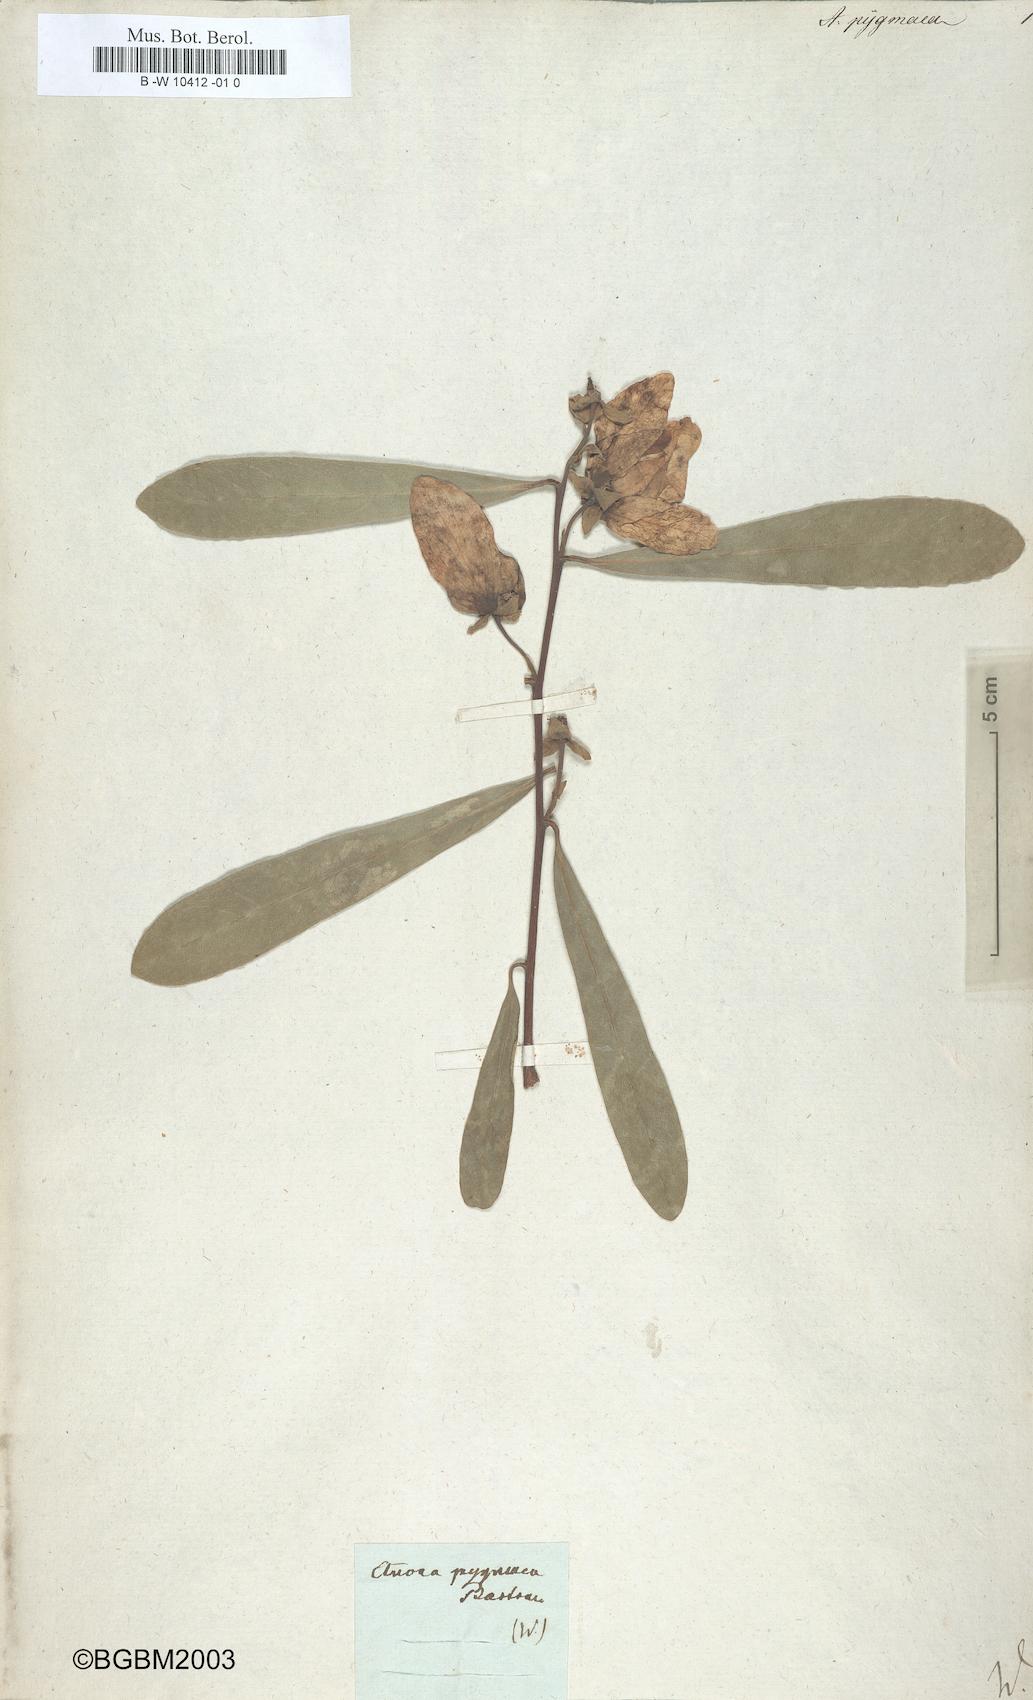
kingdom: Plantae
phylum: Tracheophyta
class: Magnoliopsida
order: Magnoliales
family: Annonaceae
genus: Annona
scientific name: Annona warmingiana
